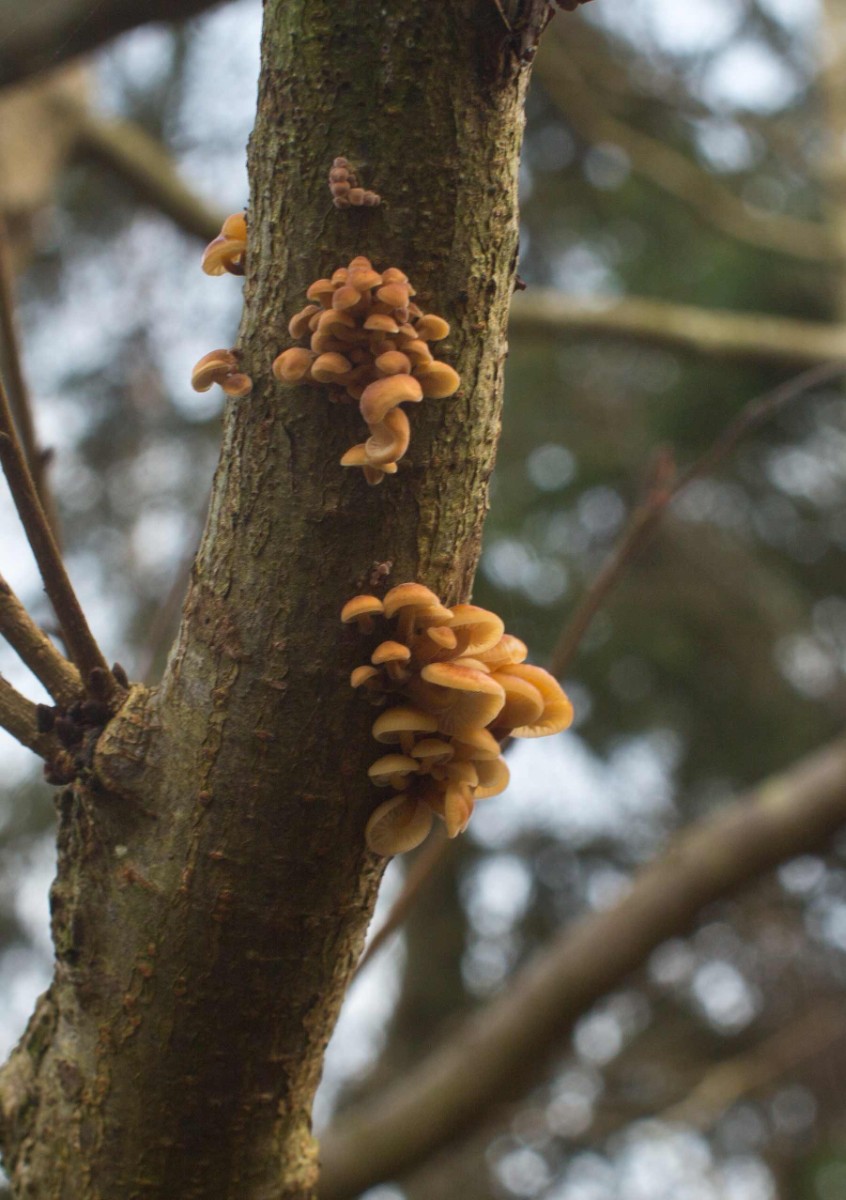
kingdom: Fungi
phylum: Basidiomycota
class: Agaricomycetes
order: Agaricales
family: Physalacriaceae
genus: Flammulina
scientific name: Flammulina
